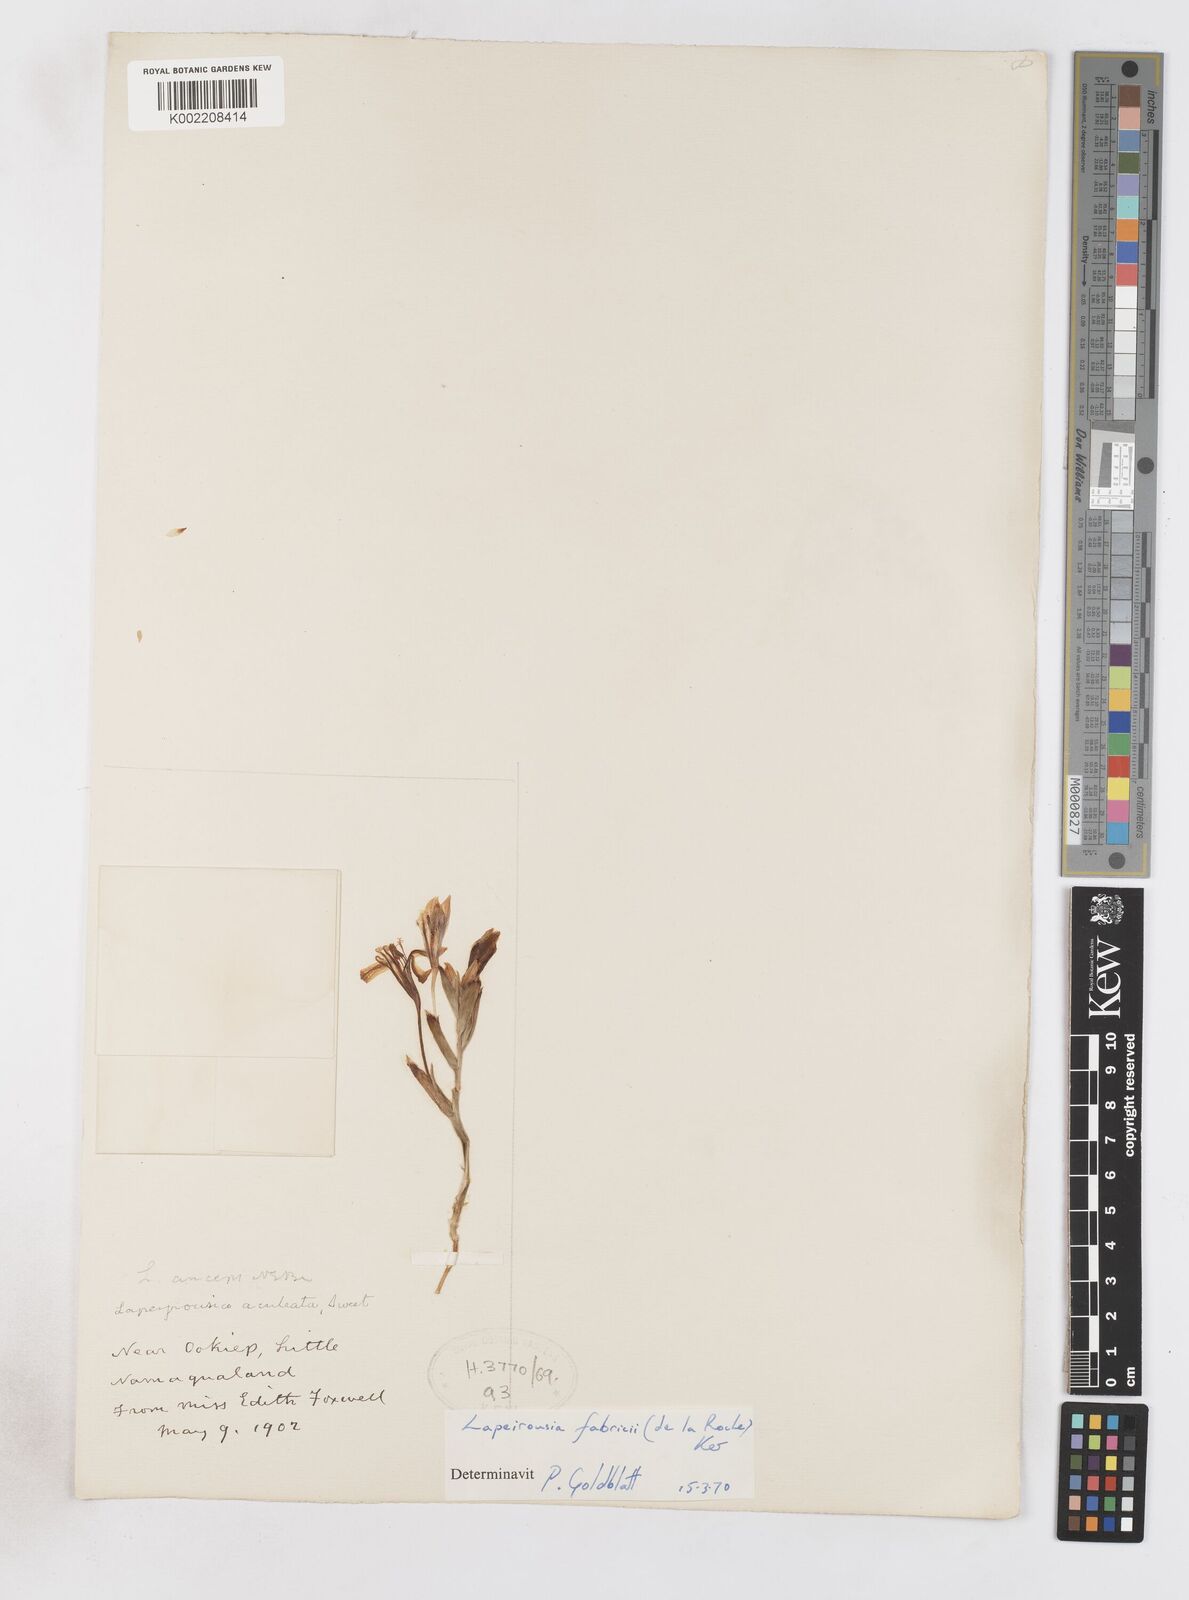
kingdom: Plantae
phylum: Tracheophyta
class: Liliopsida
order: Asparagales
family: Iridaceae
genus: Lapeirousia
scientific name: Lapeirousia fabricii
